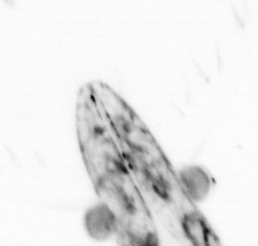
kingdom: Animalia
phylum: Chaetognatha
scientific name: Chaetognatha
